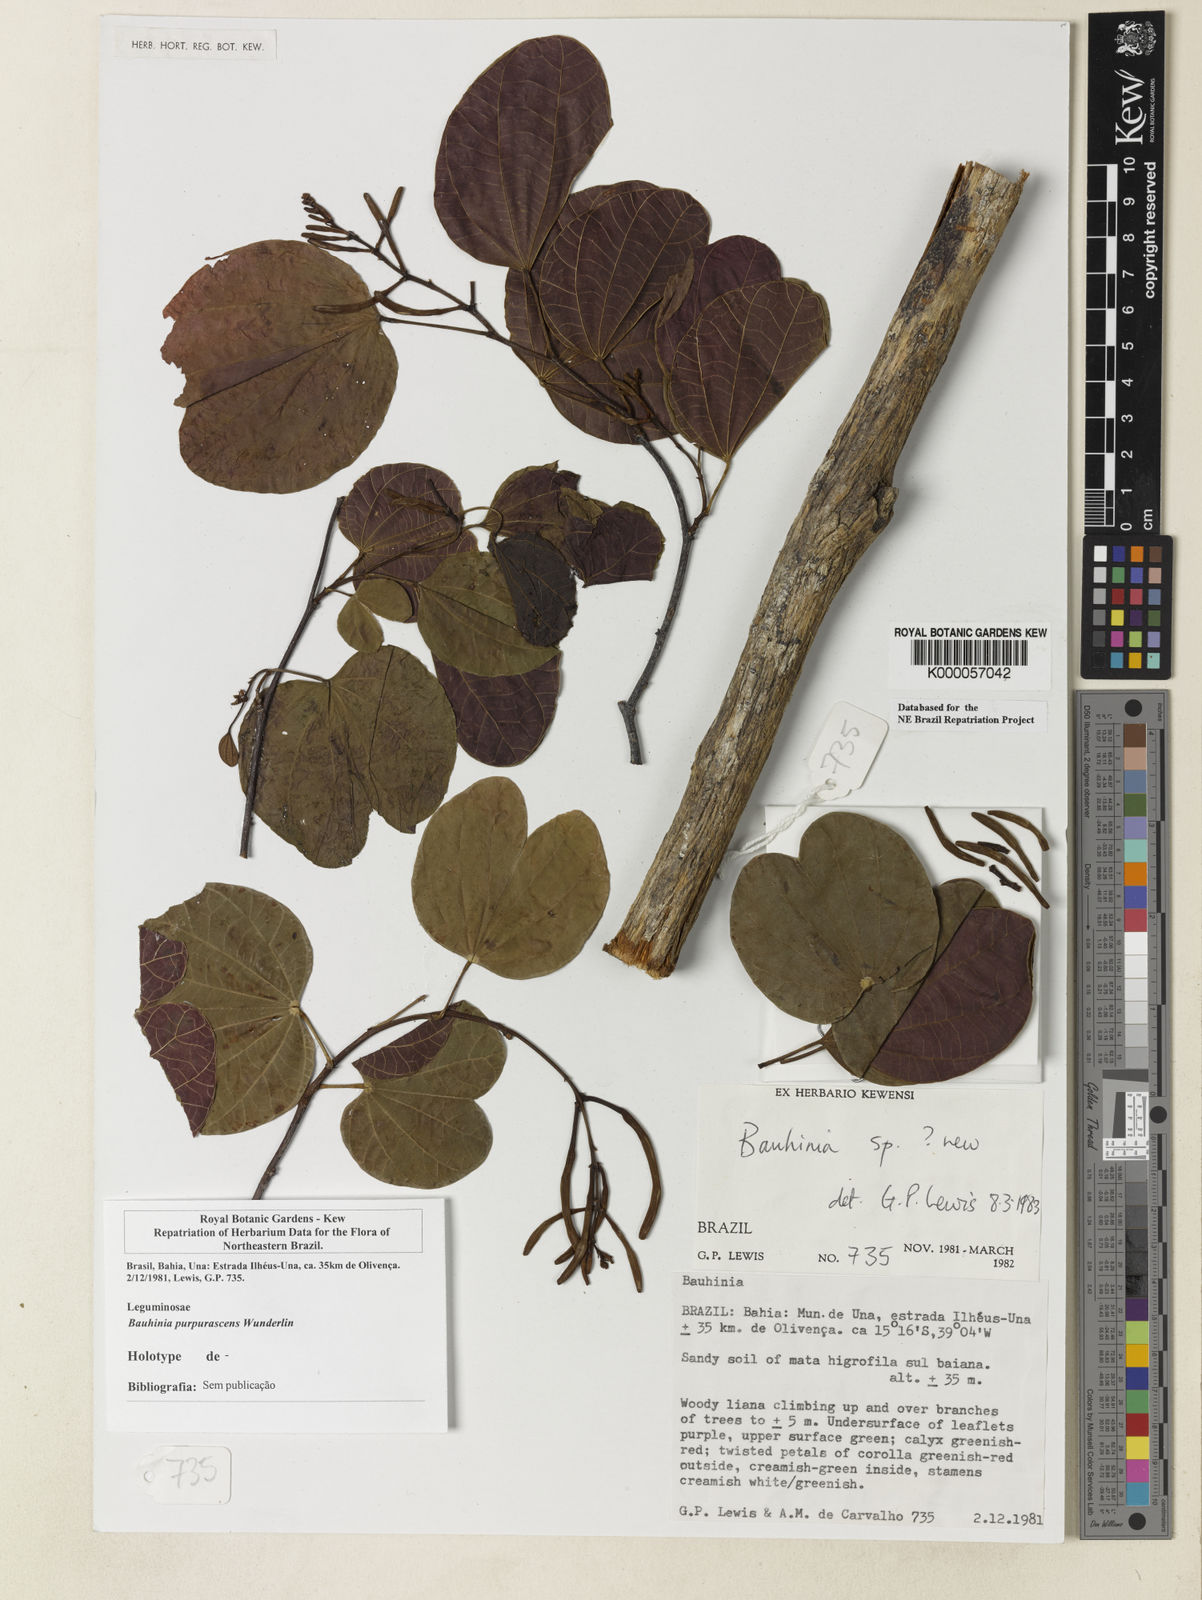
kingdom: Plantae
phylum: Tracheophyta
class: Magnoliopsida
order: Fabales
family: Fabaceae
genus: Bauhinia
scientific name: Bauhinia
